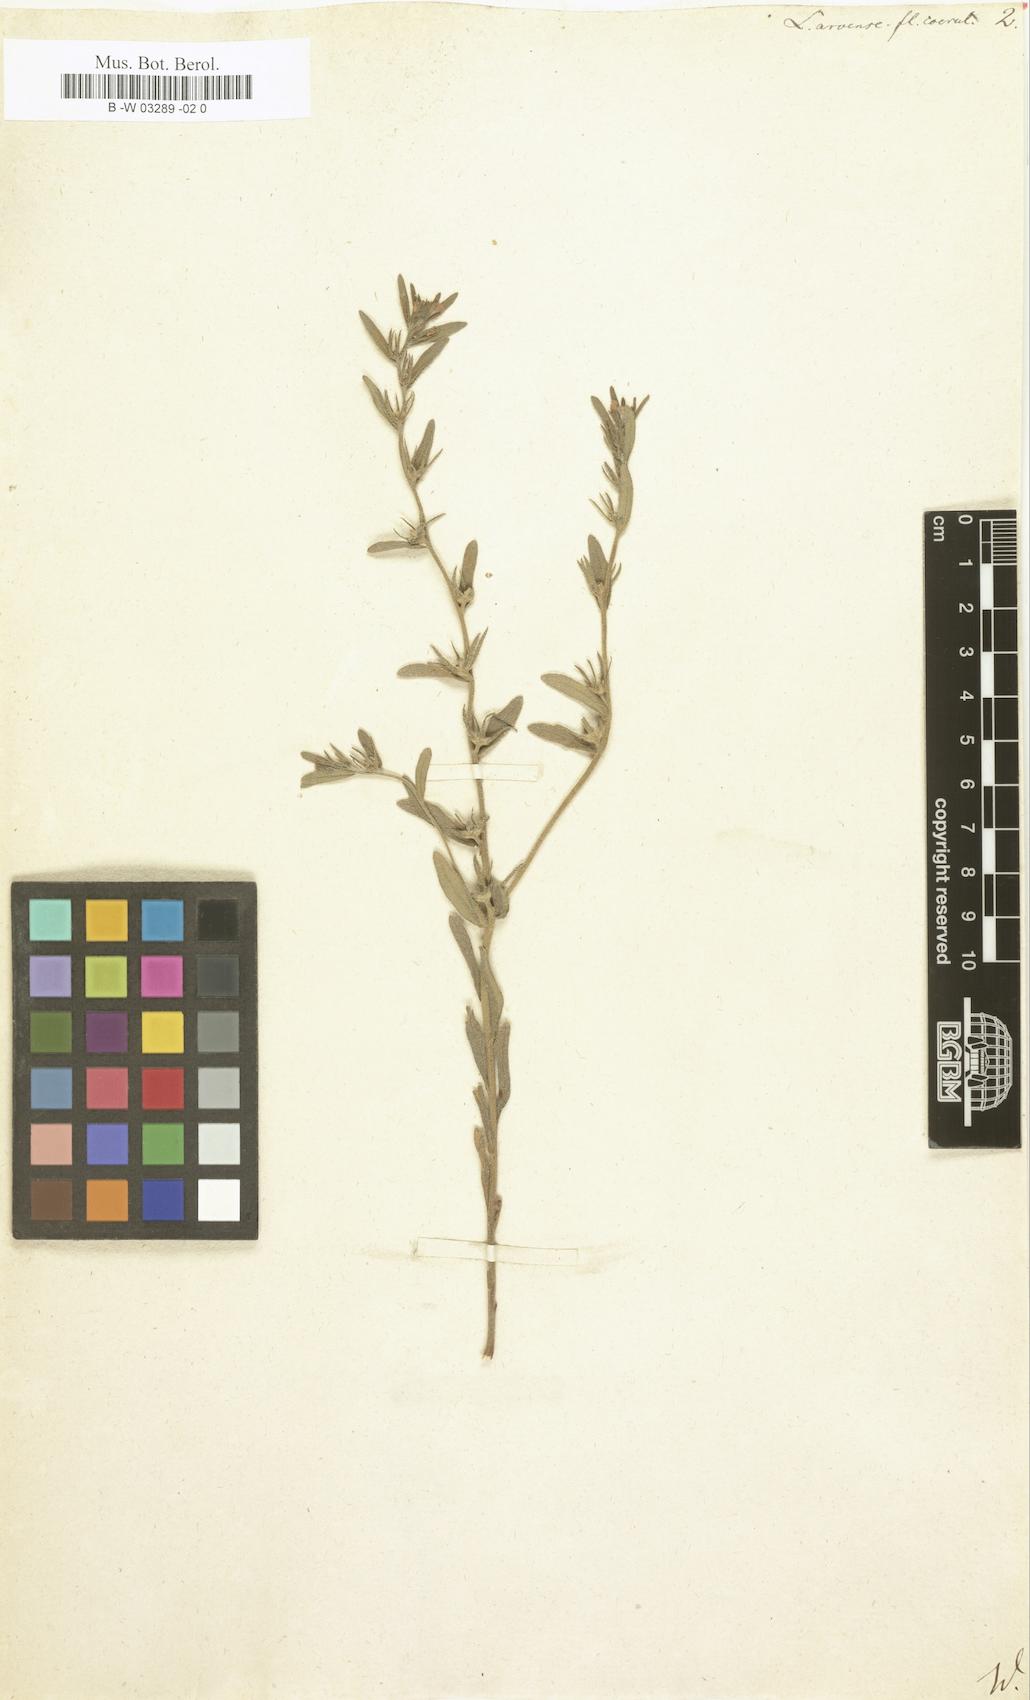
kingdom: Plantae
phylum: Tracheophyta
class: Magnoliopsida
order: Boraginales
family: Boraginaceae
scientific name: Boraginaceae
